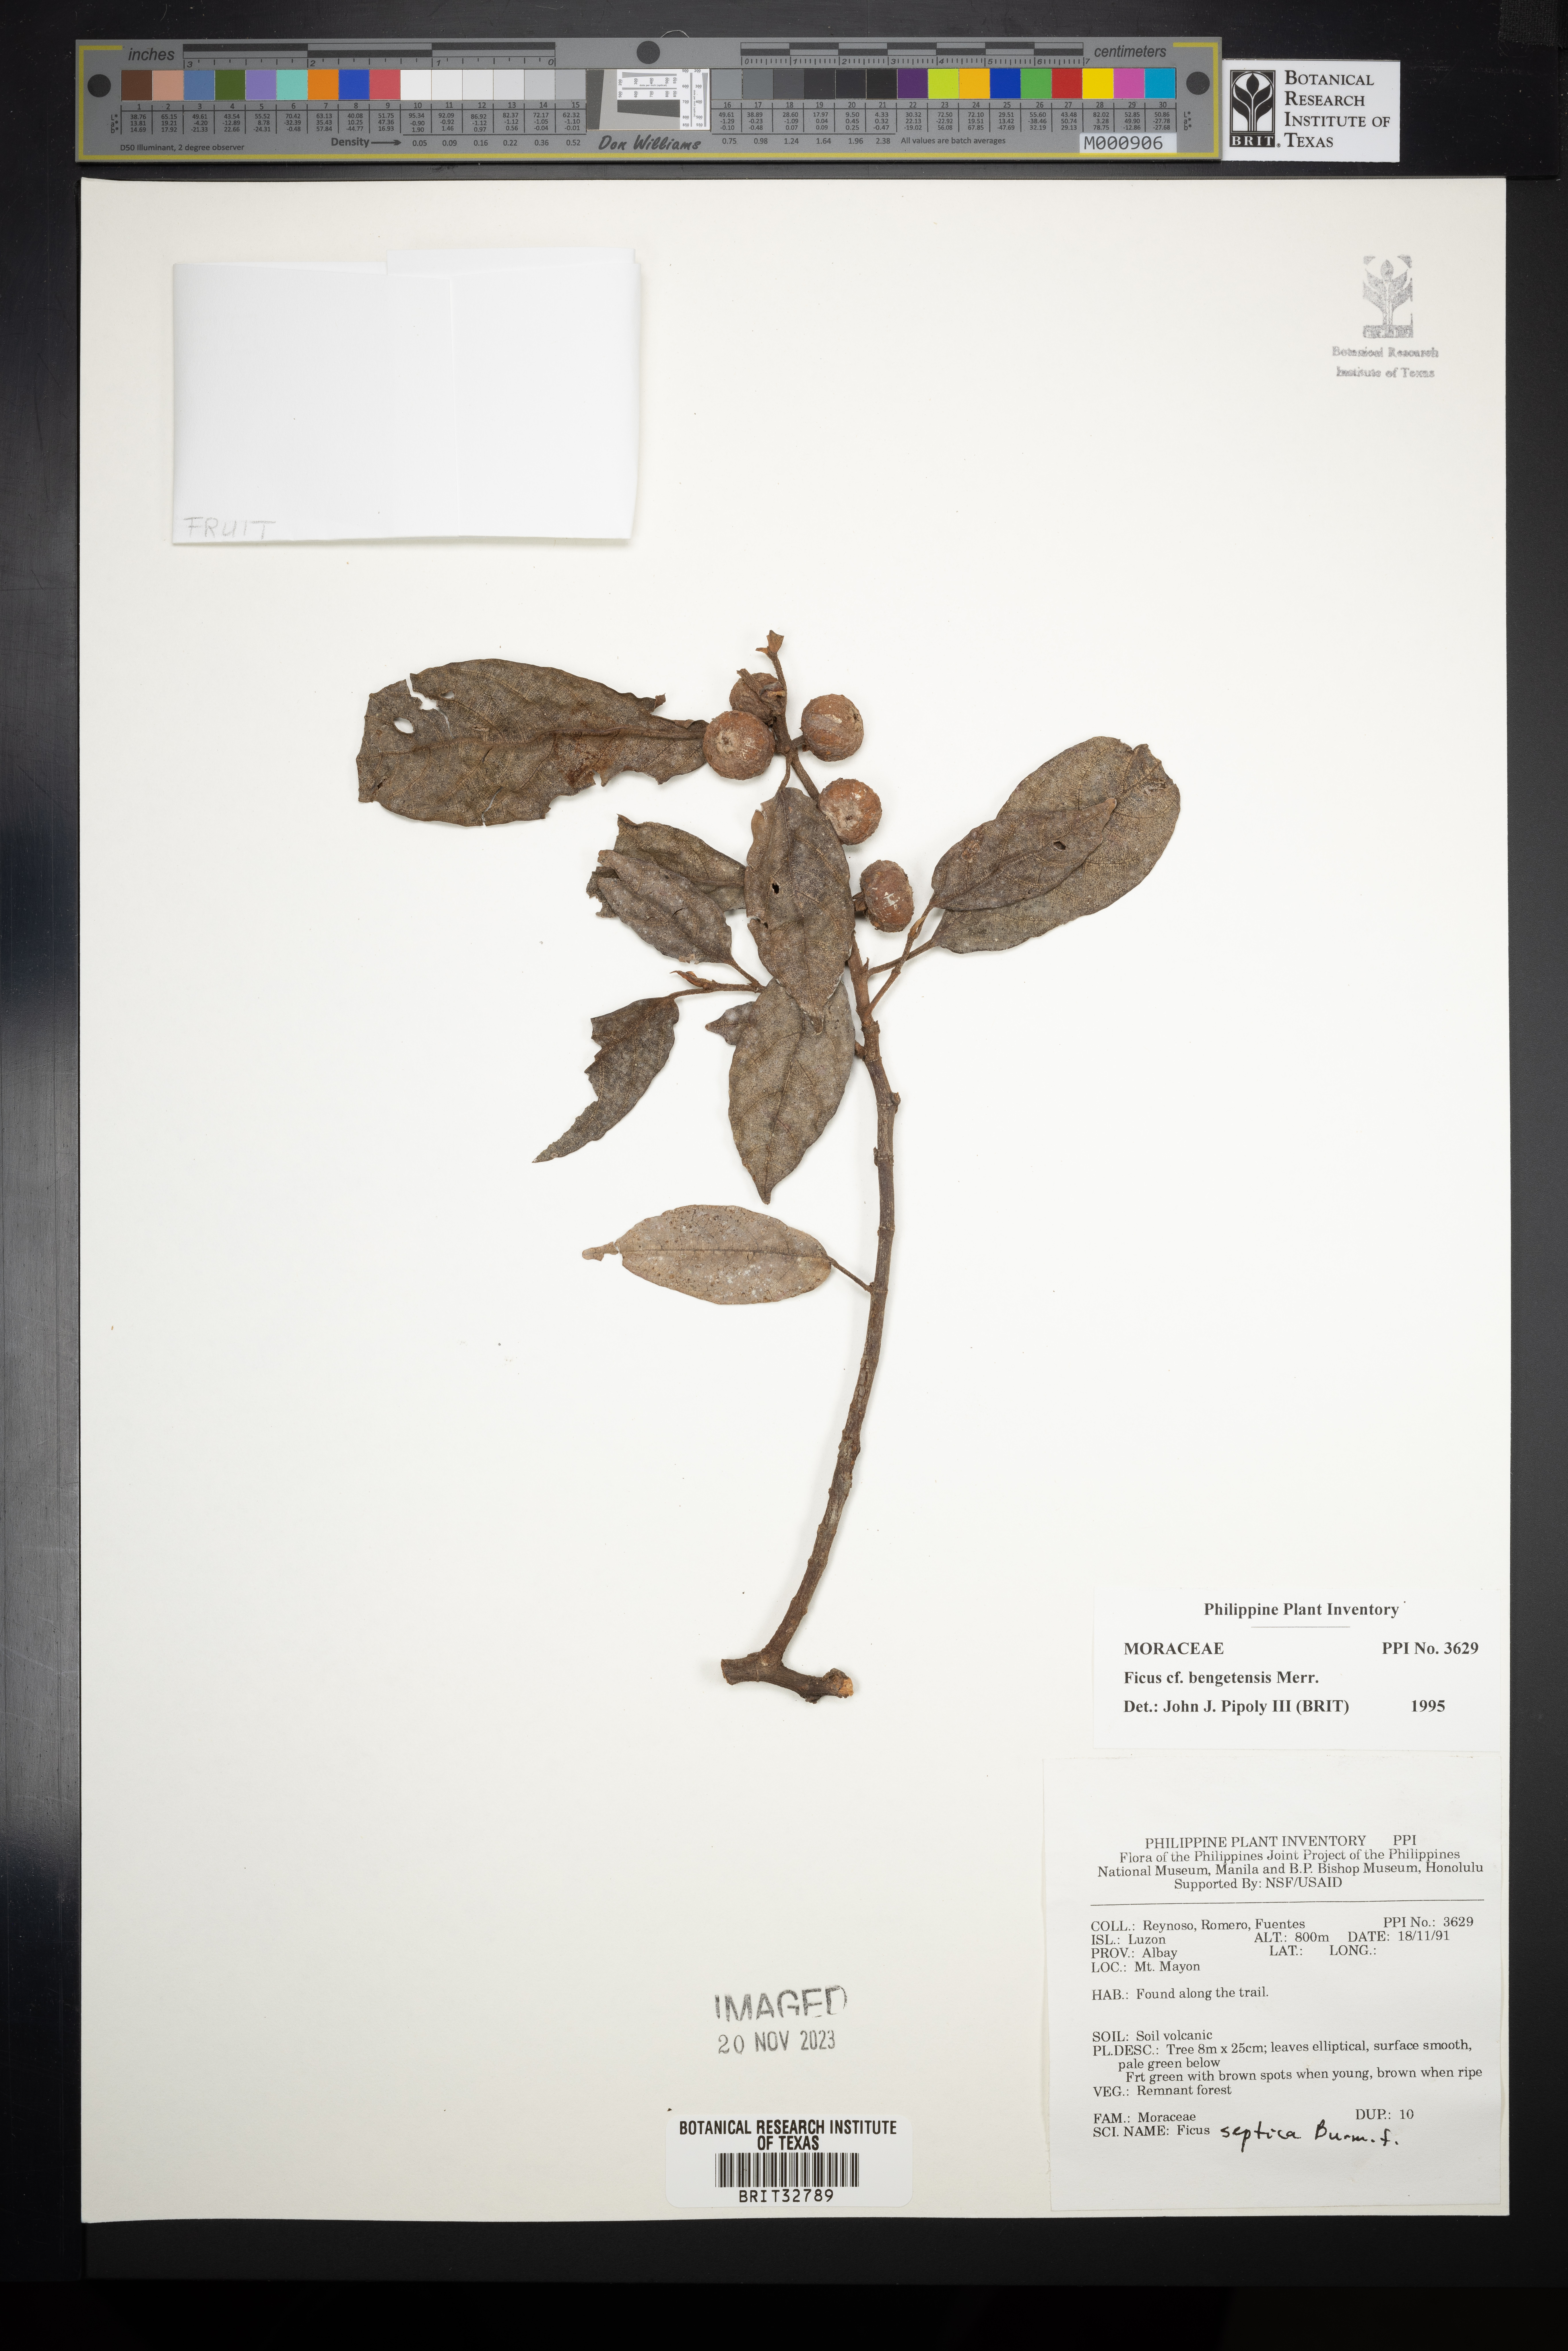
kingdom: Plantae
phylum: Tracheophyta
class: Magnoliopsida
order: Rosales
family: Moraceae
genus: Ficus
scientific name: Ficus benguetensis
